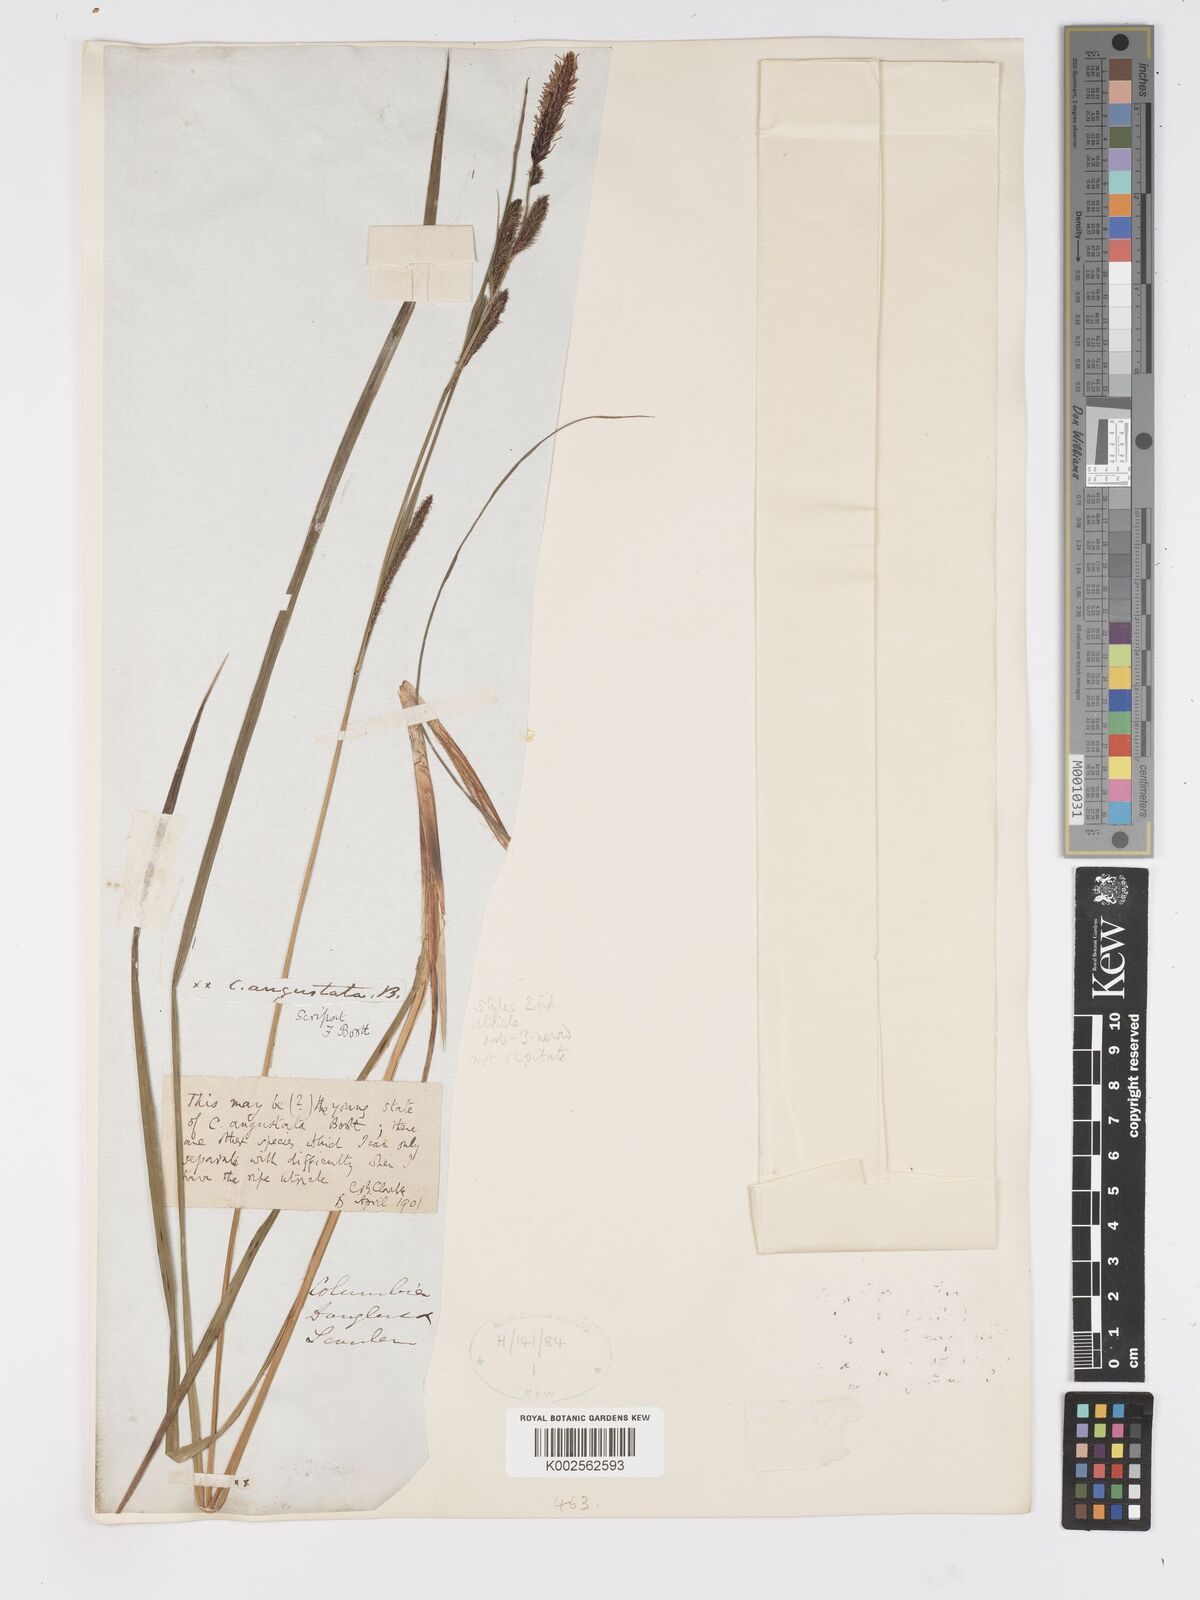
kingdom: Plantae
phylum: Tracheophyta
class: Liliopsida
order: Poales
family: Cyperaceae
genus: Carex
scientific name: Carex haydenii
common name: Hayden's sedge
